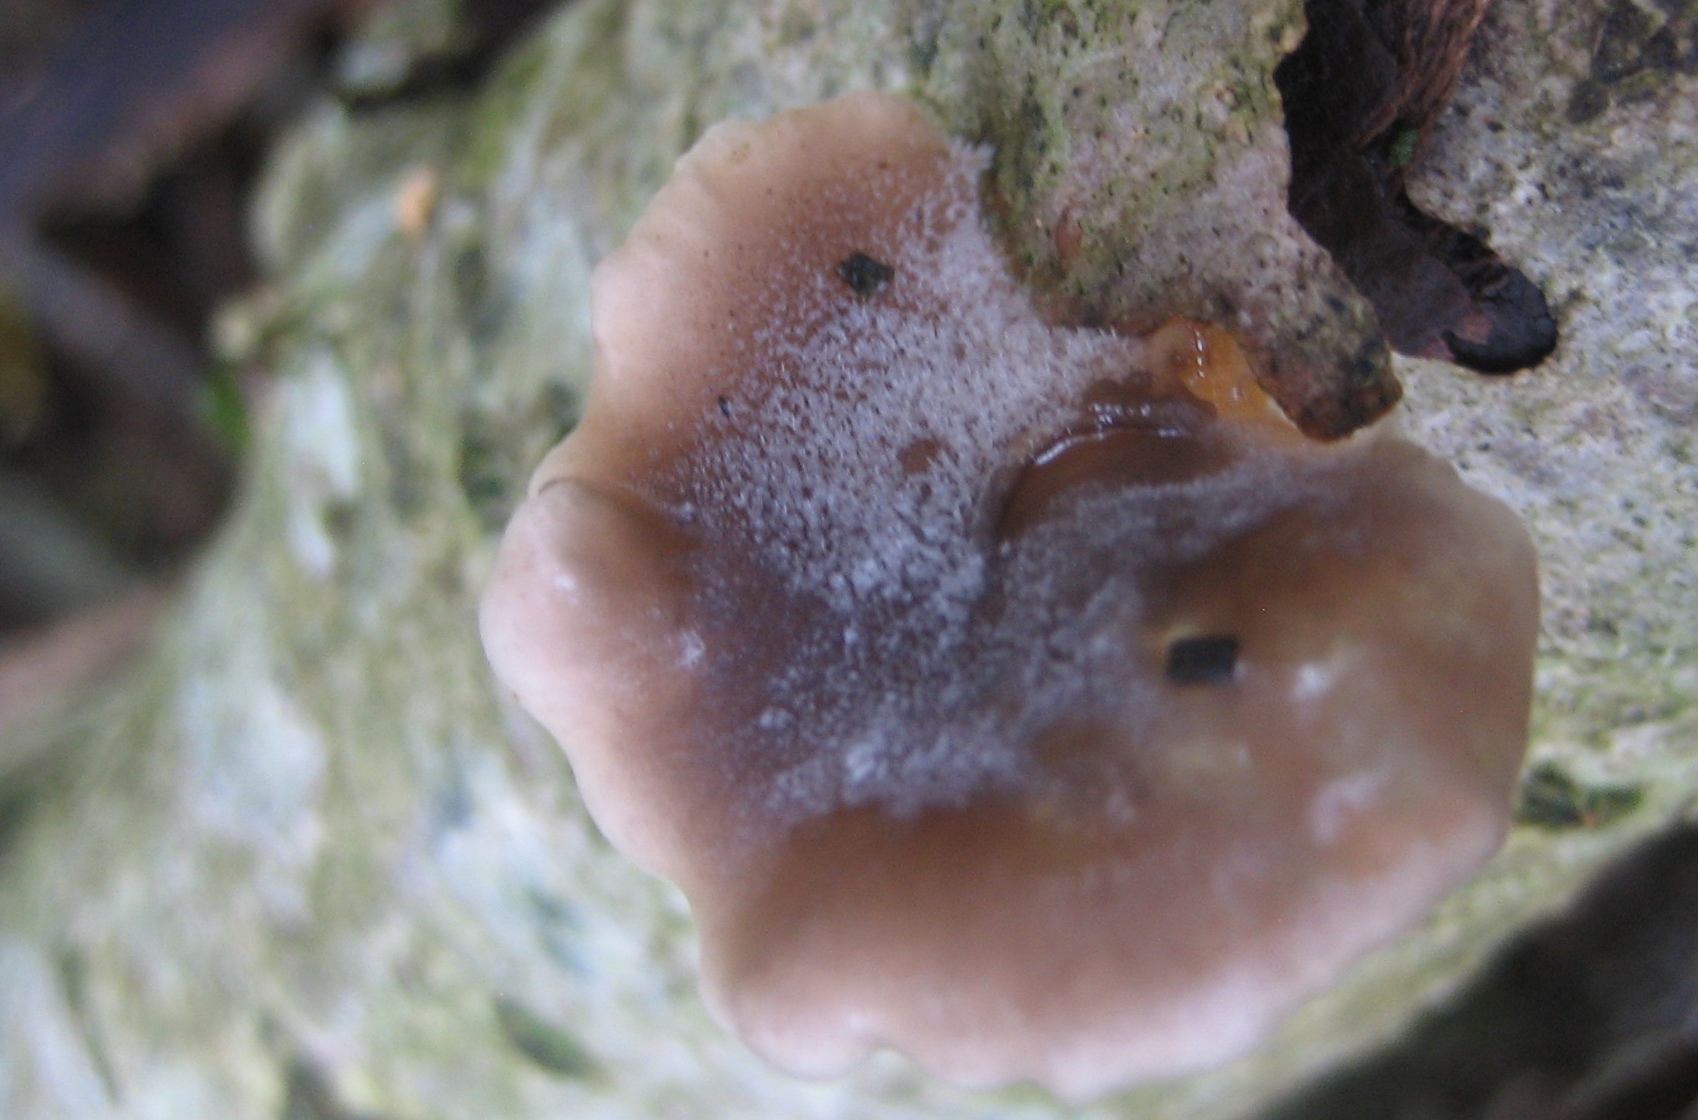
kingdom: Fungi
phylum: Basidiomycota
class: Agaricomycetes
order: Agaricales
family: Pleurotaceae
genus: Hohenbuehelia
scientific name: Hohenbuehelia
